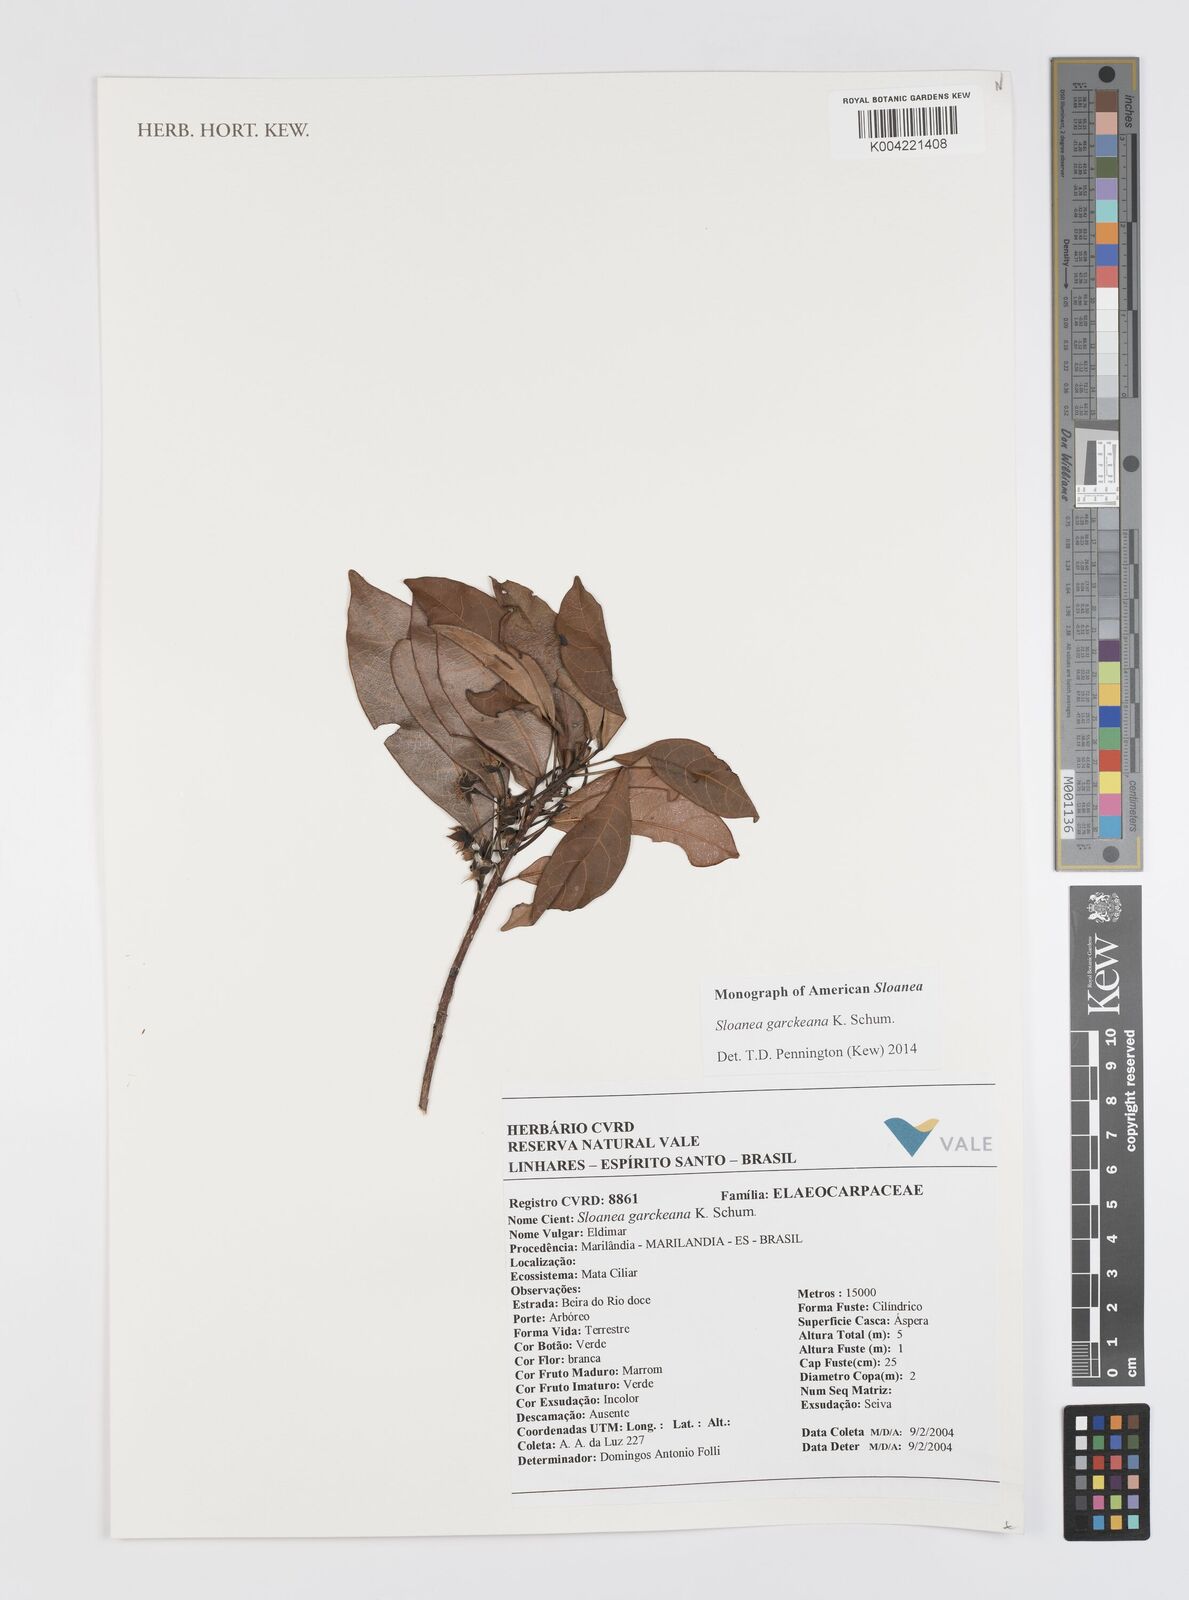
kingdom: Plantae
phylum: Tracheophyta
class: Magnoliopsida
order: Oxalidales
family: Elaeocarpaceae
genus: Sloanea
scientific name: Sloanea garckeana
